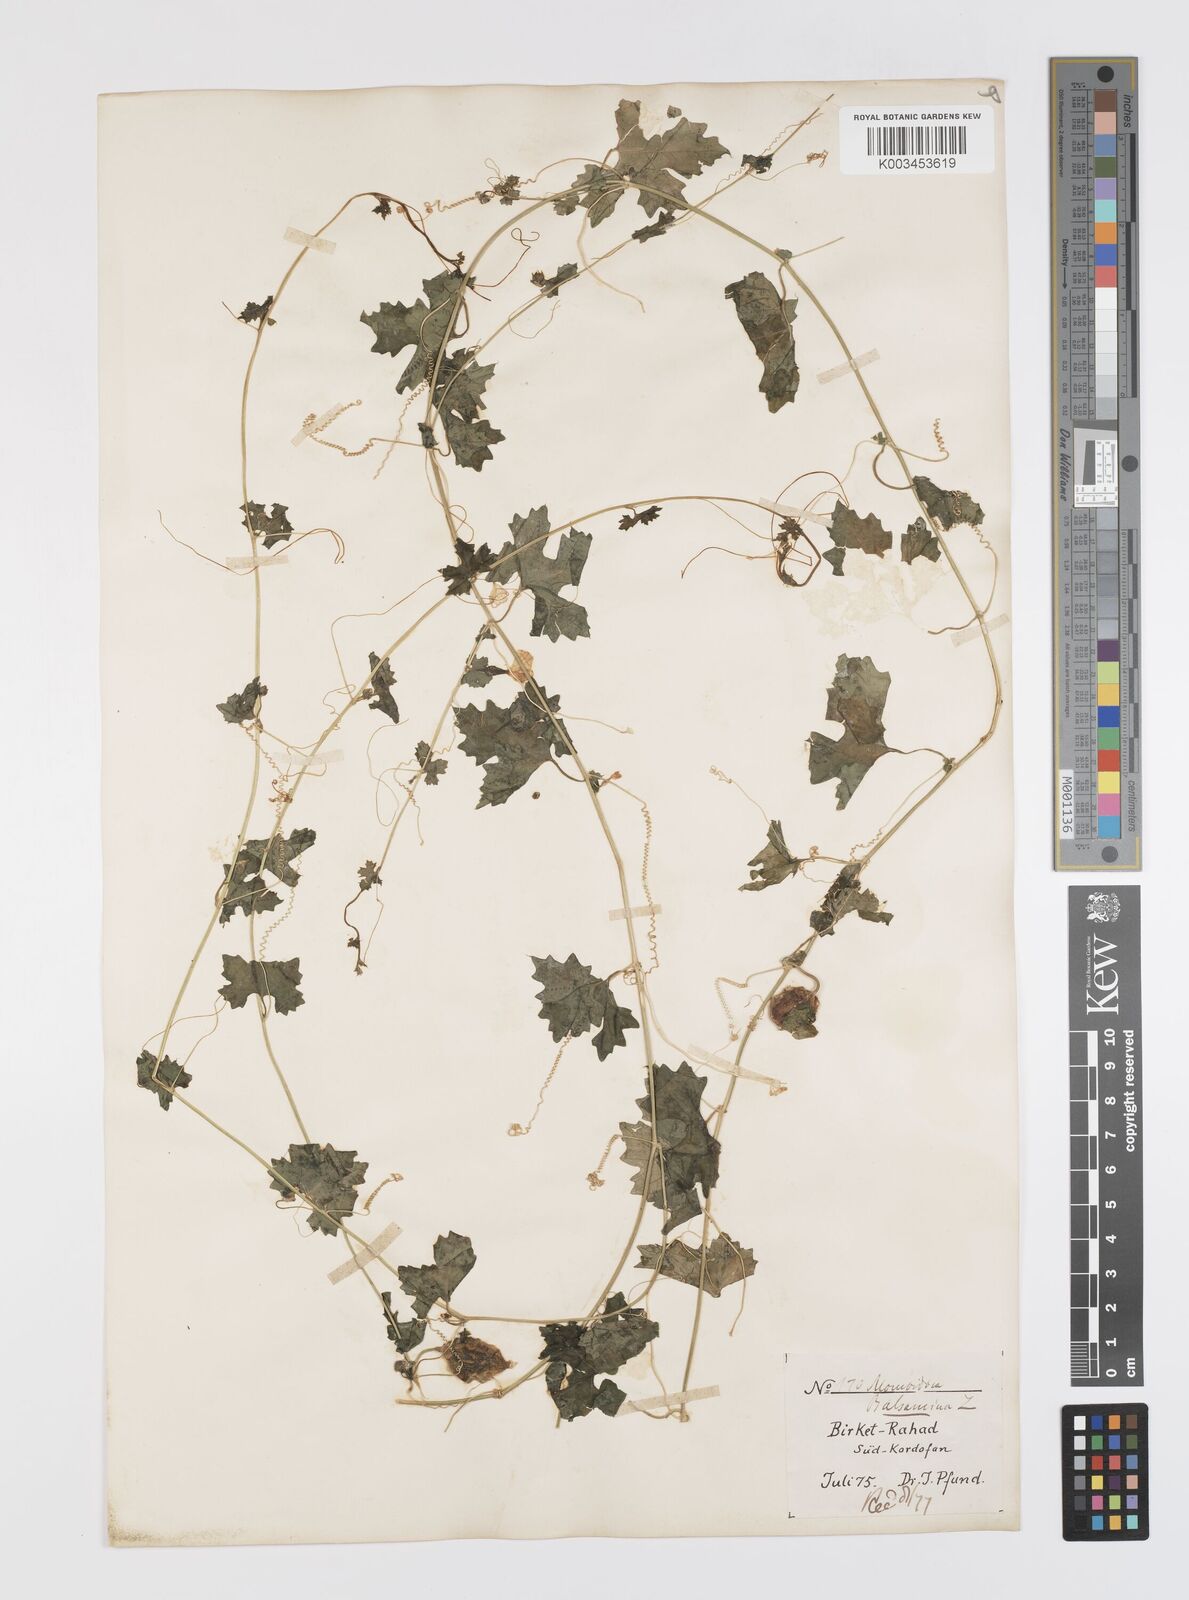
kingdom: Plantae
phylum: Tracheophyta
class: Magnoliopsida
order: Cucurbitales
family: Cucurbitaceae
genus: Momordica
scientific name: Momordica balsamina
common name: Southern balsampear
